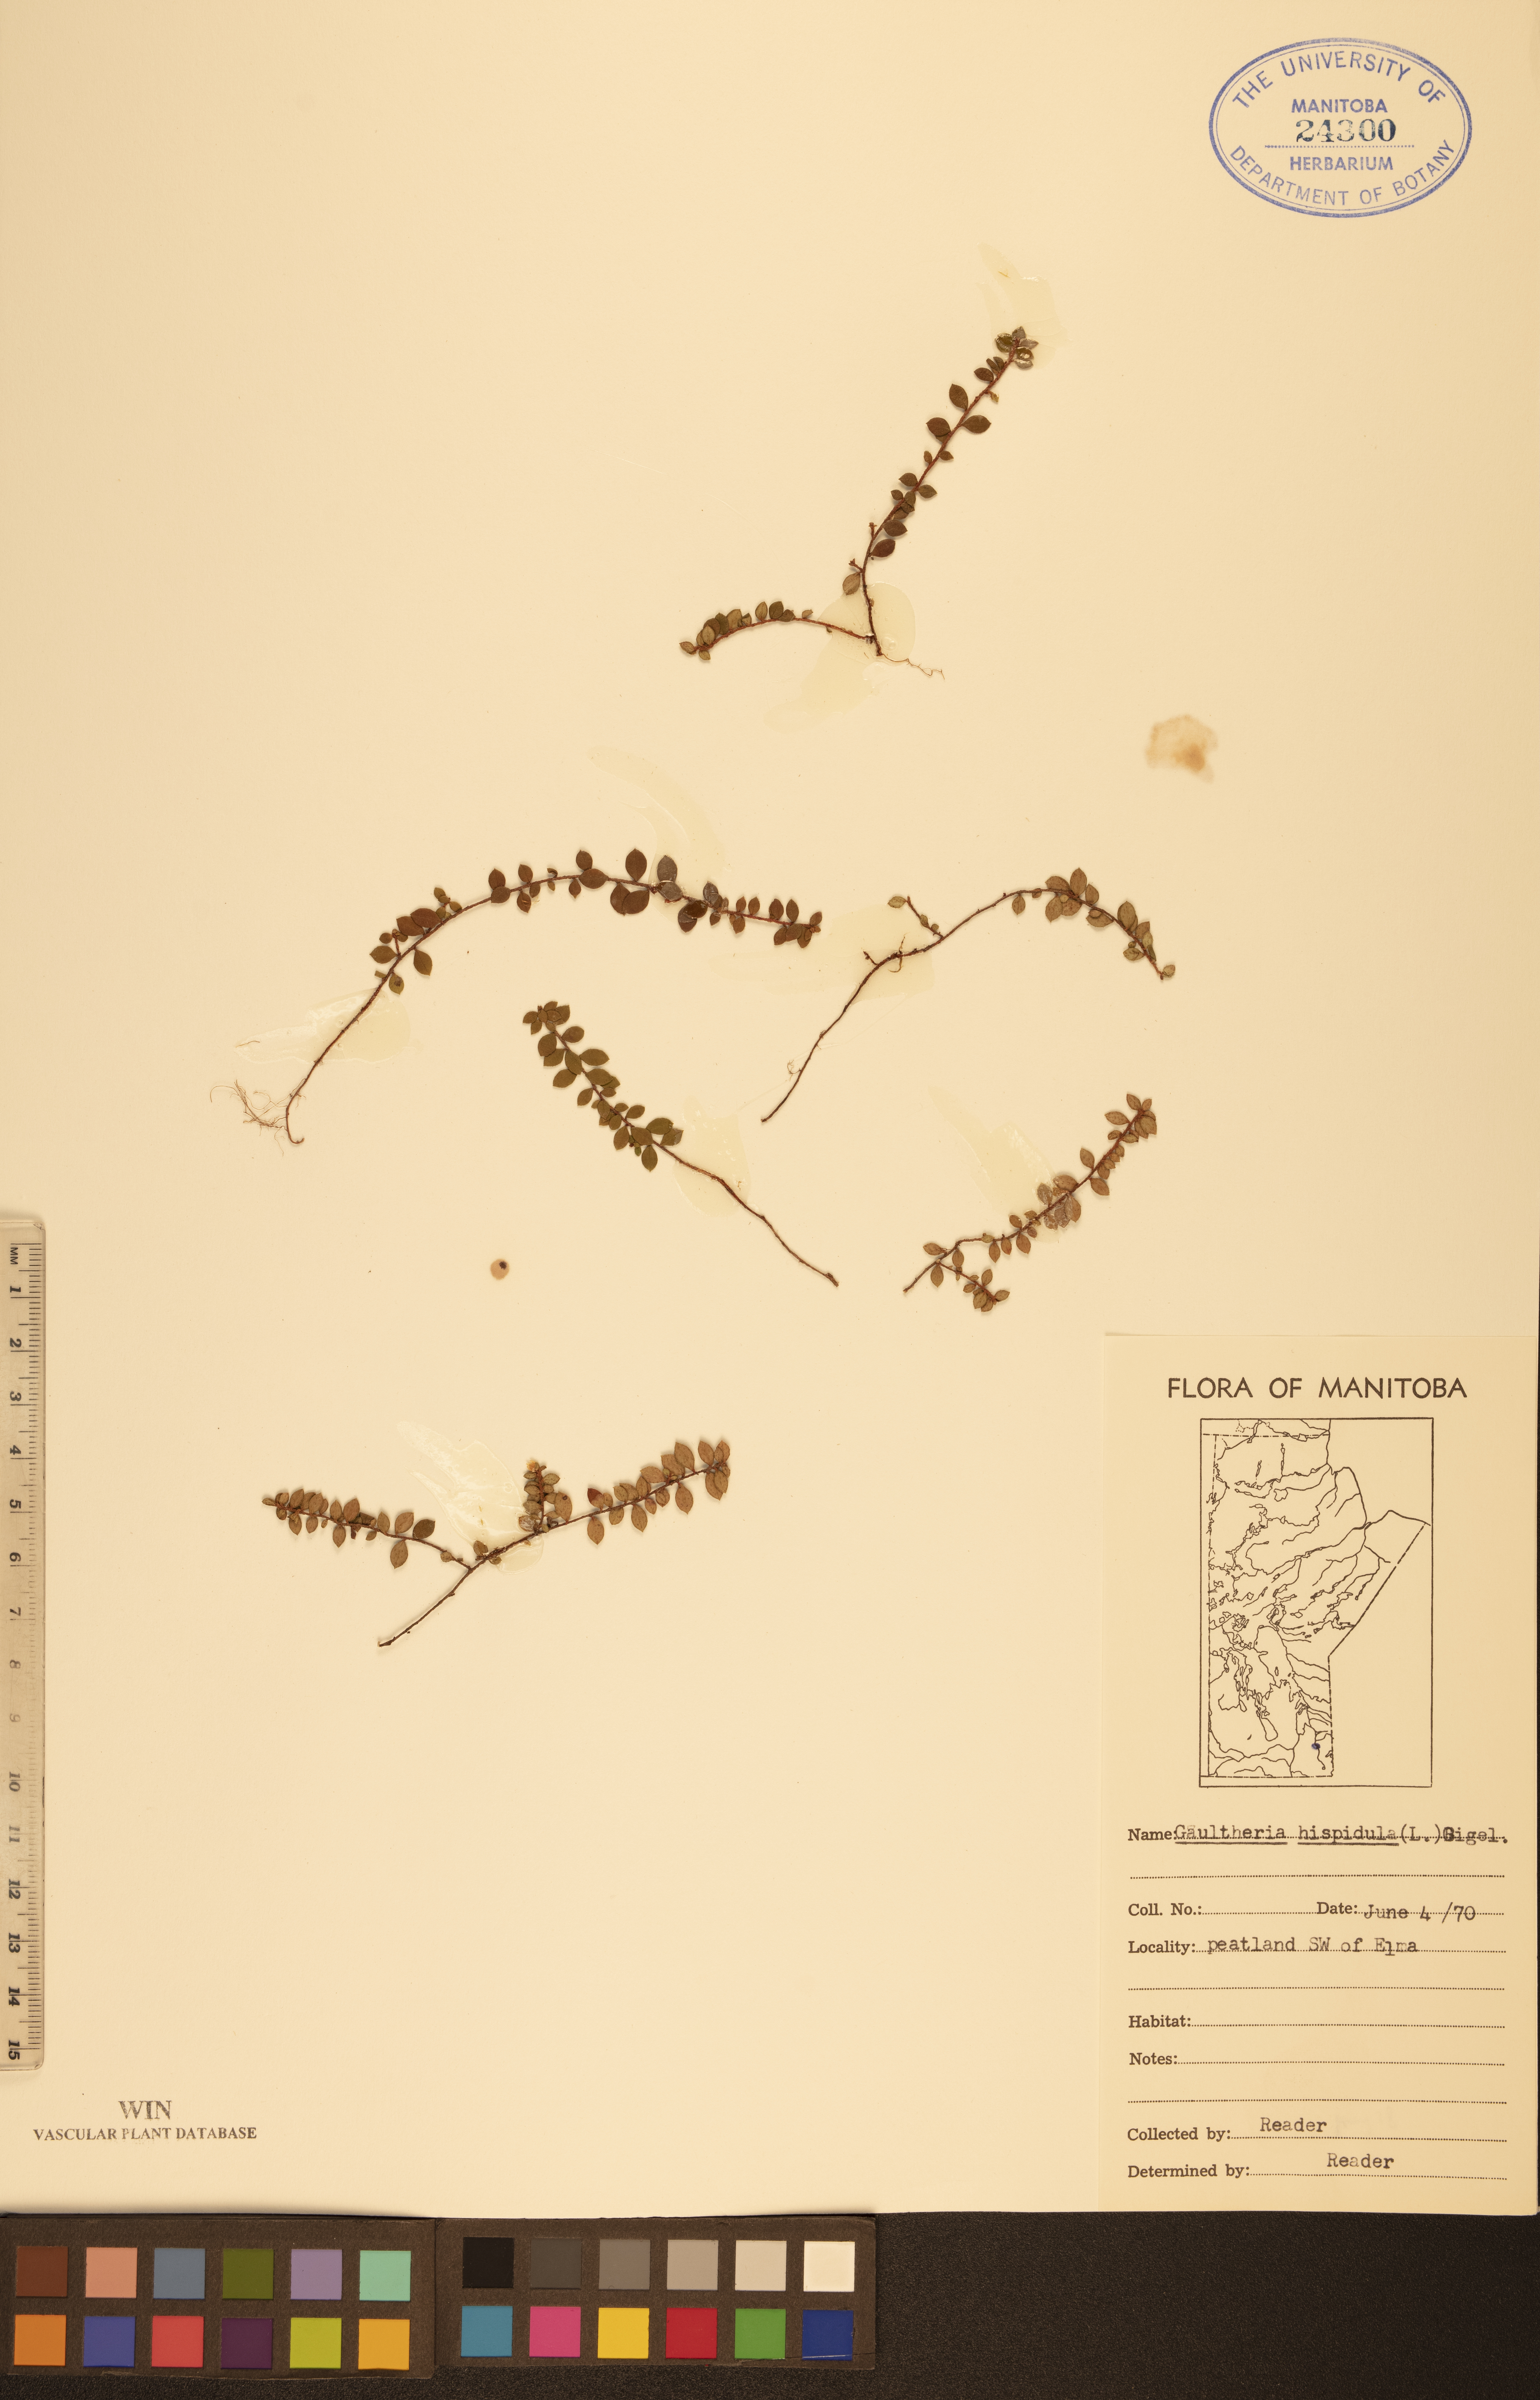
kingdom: Plantae
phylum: Tracheophyta
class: Magnoliopsida
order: Ericales
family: Ericaceae
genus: Gaultheria
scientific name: Gaultheria hispidula
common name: Cancer wintergreen
